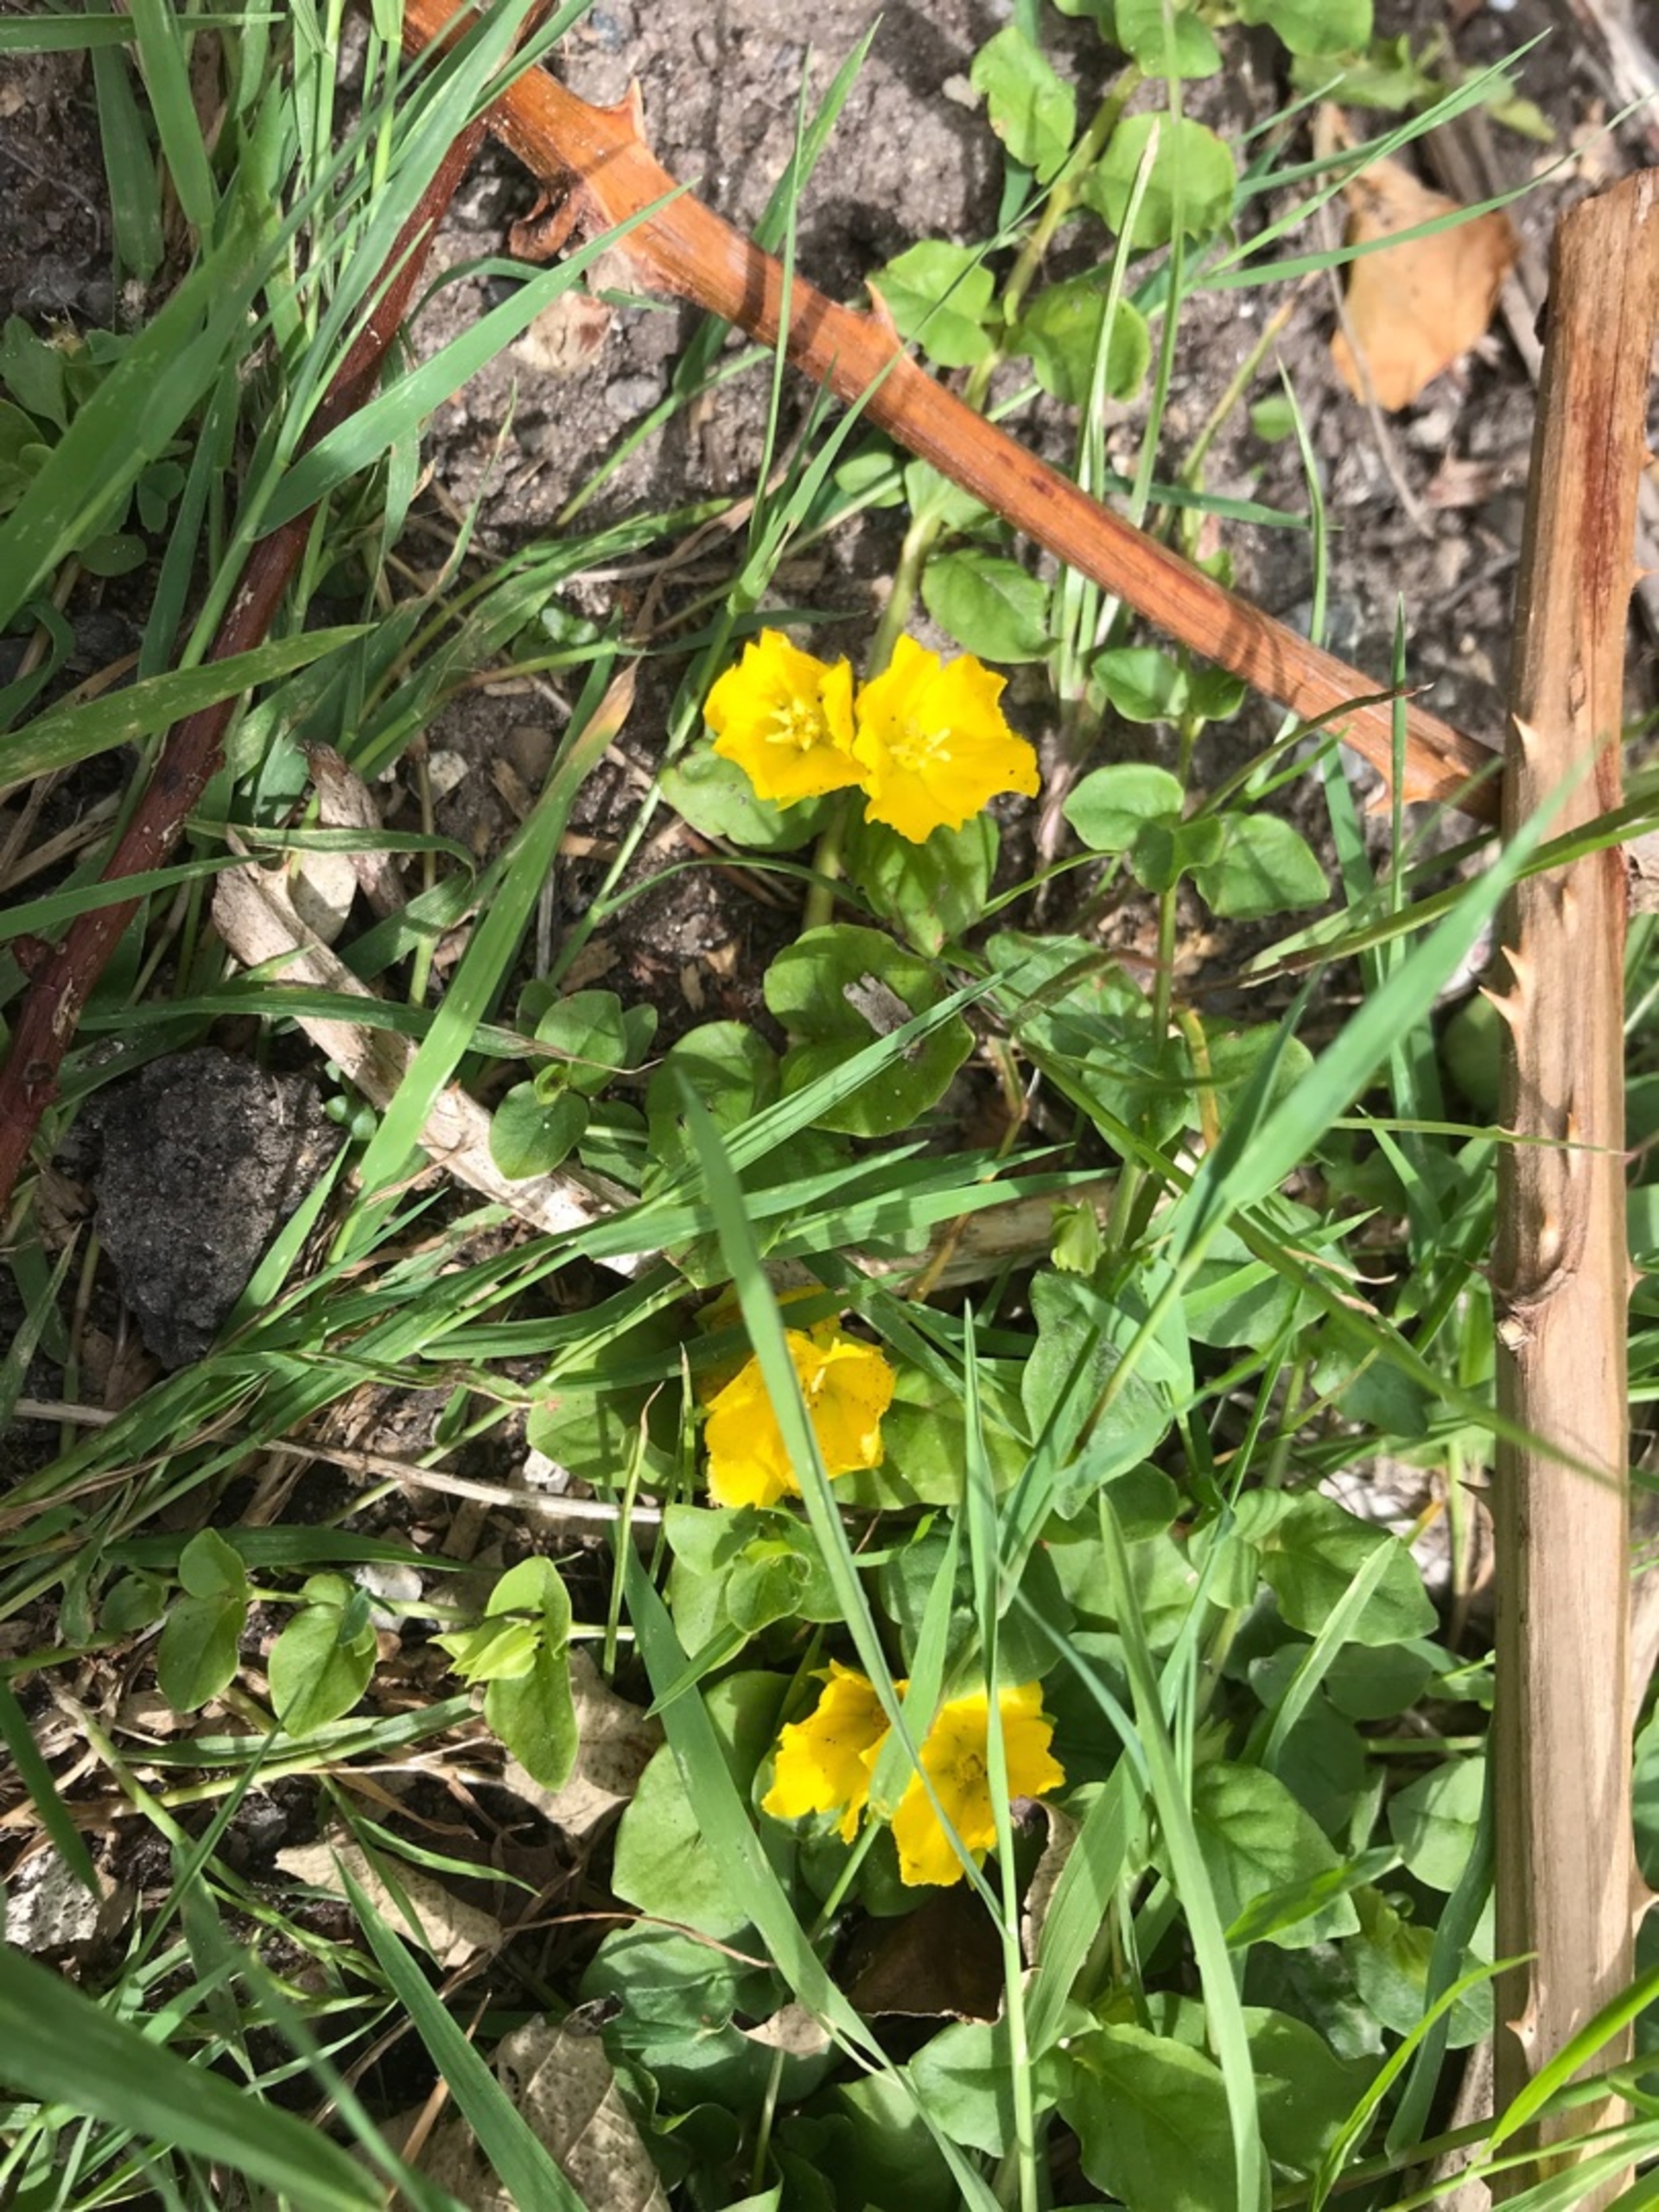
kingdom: Plantae
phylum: Tracheophyta
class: Magnoliopsida
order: Ericales
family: Primulaceae
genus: Lysimachia
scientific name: Lysimachia nummularia
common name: Pengebladet fredløs
